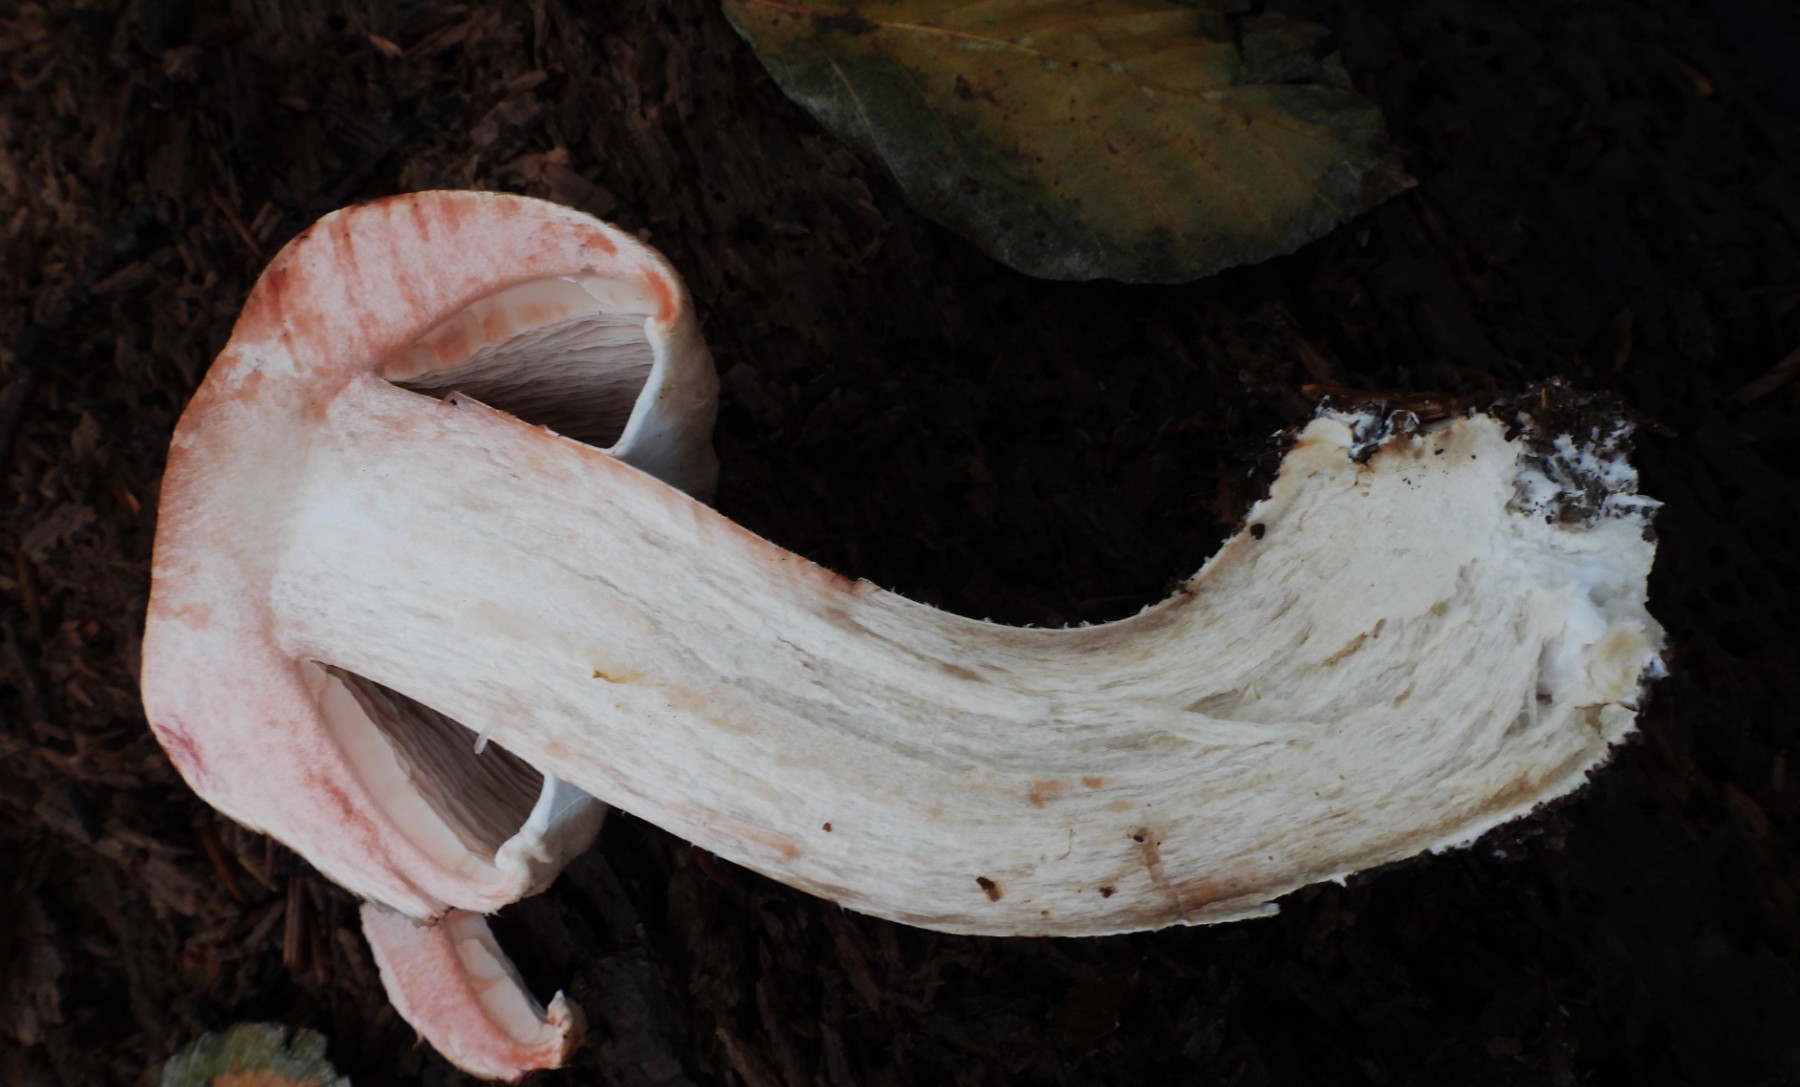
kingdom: Fungi
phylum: Basidiomycota
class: Agaricomycetes
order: Agaricales
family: Agaricaceae
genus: Agaricus
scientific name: Agaricus langei
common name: stor blod-champignon
